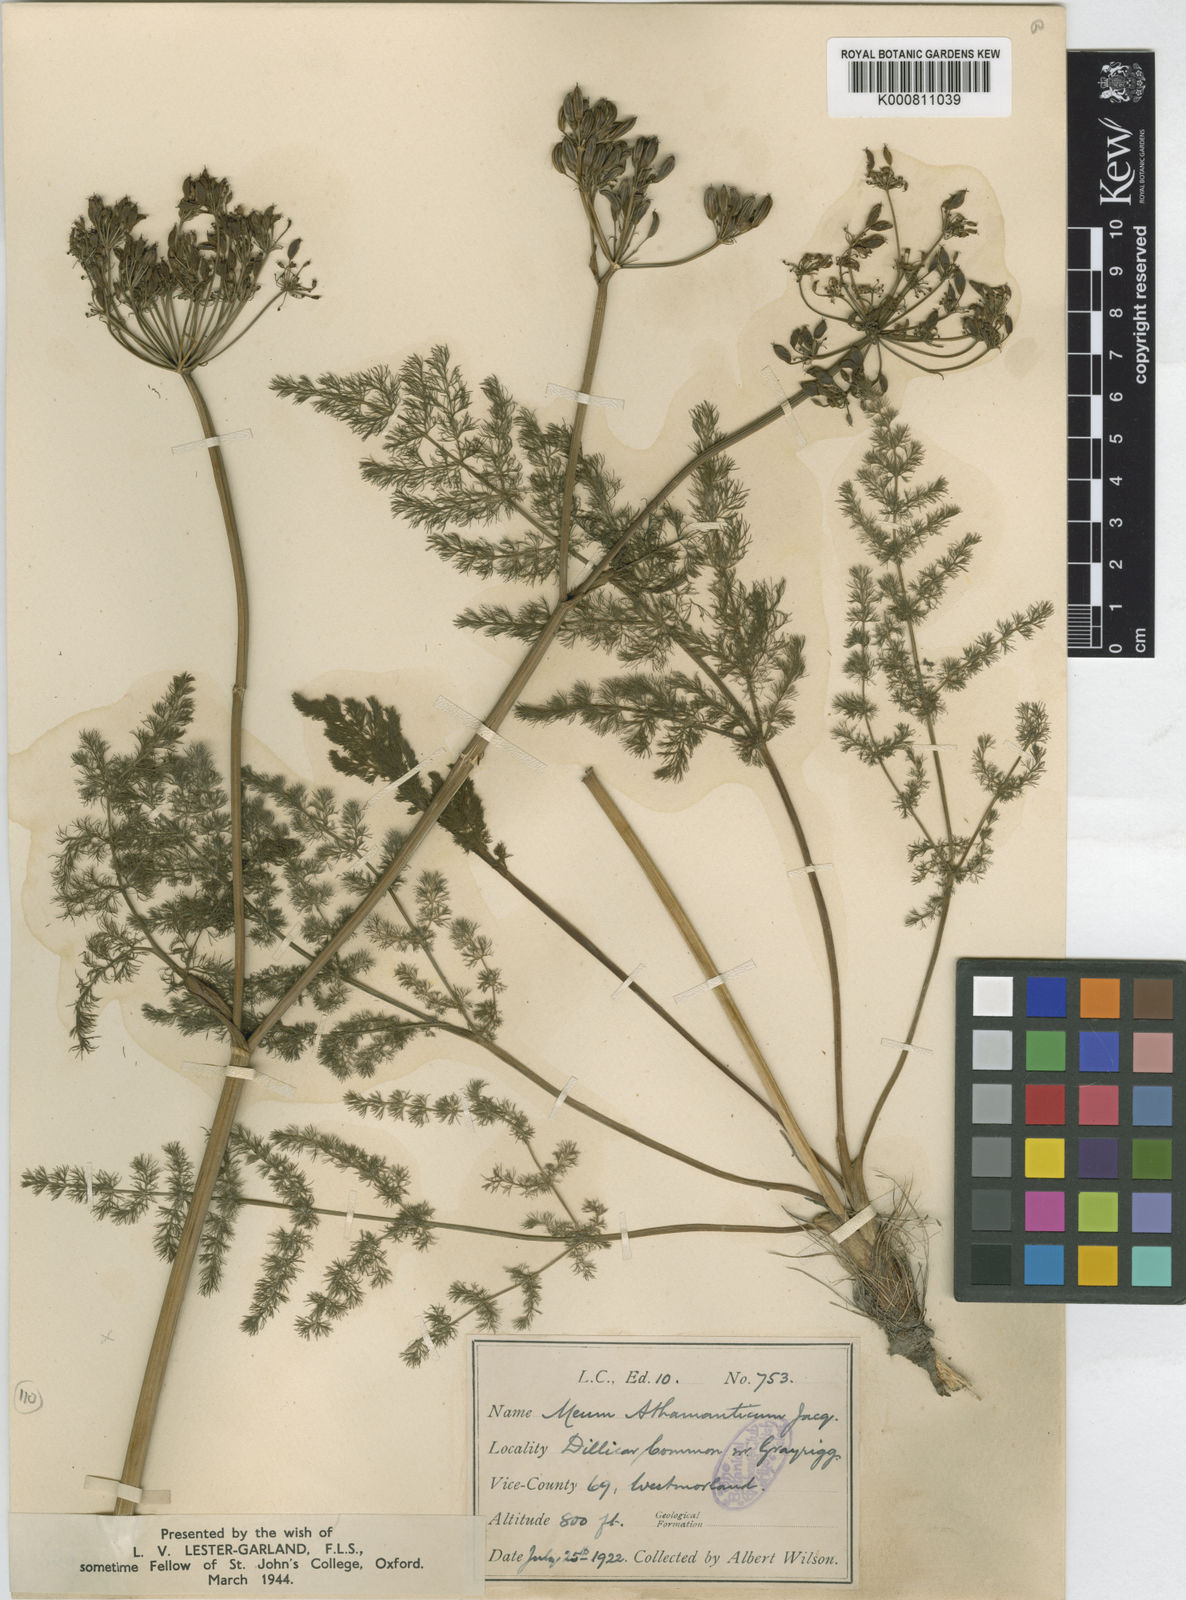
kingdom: Plantae
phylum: Tracheophyta
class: Magnoliopsida
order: Apiales
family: Apiaceae
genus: Meum
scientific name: Meum athamanticum
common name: Spignel
